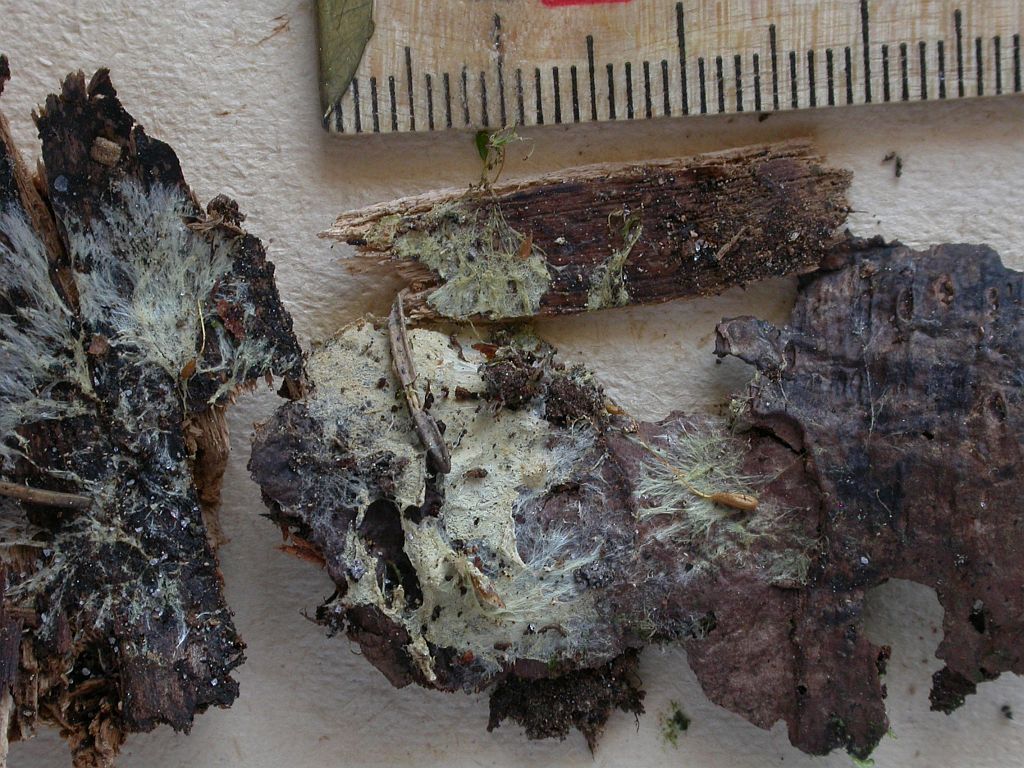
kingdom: Fungi
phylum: Basidiomycota
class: Agaricomycetes
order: Atheliales
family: Atheliaceae
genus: Amphinema
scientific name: Amphinema byssoides
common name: almindelig rodhinde
